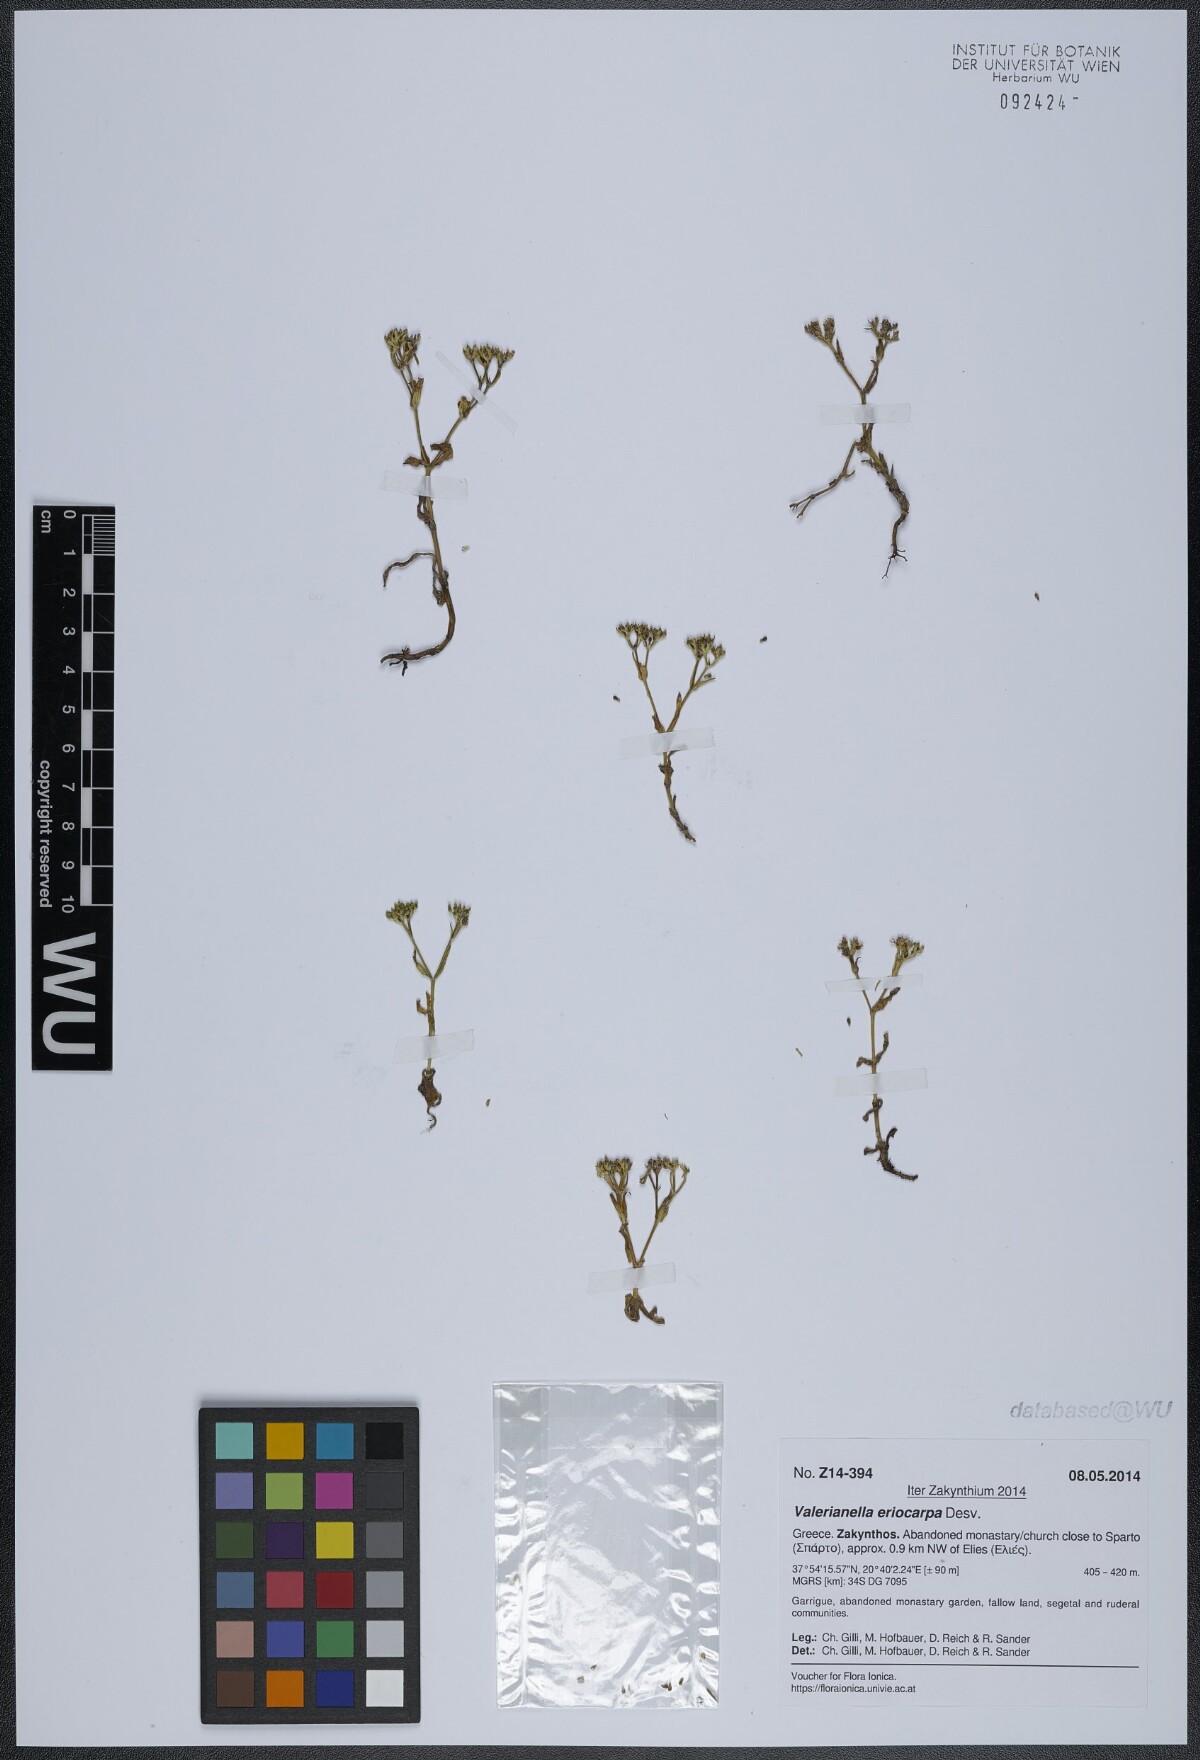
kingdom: Plantae
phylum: Tracheophyta
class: Magnoliopsida
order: Dipsacales
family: Caprifoliaceae
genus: Valerianella
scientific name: Valerianella eriocarpa
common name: Hairy-fruited cornsalad
